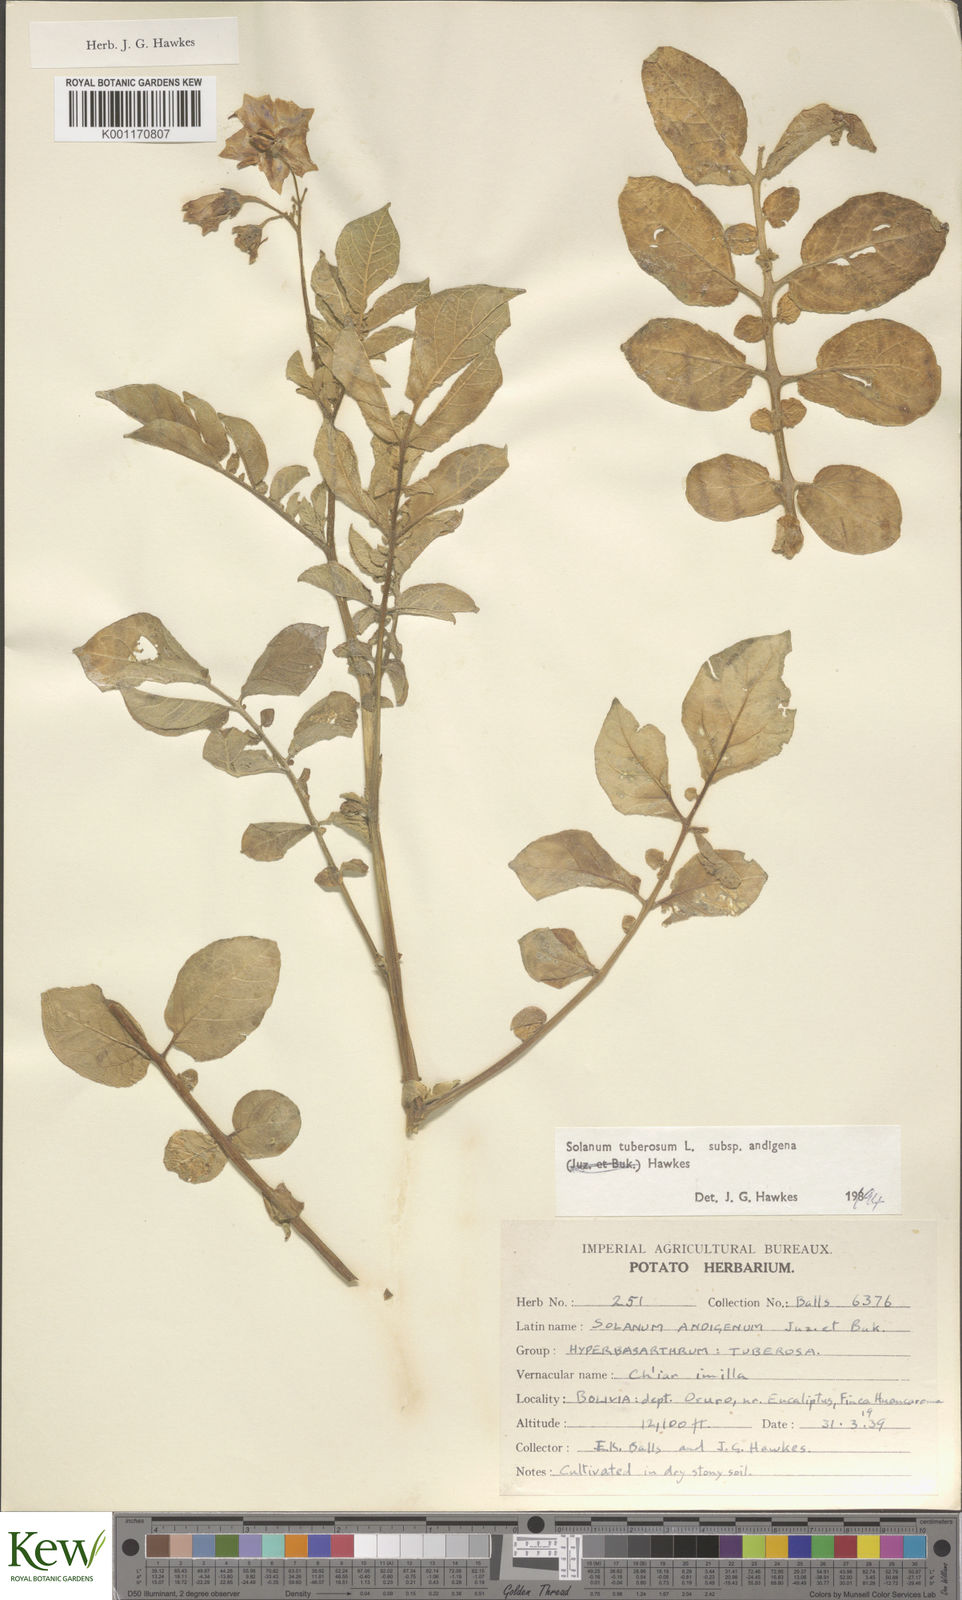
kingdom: Plantae
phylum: Tracheophyta
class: Magnoliopsida
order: Solanales
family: Solanaceae
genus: Solanum
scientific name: Solanum tuberosum
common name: Potato
